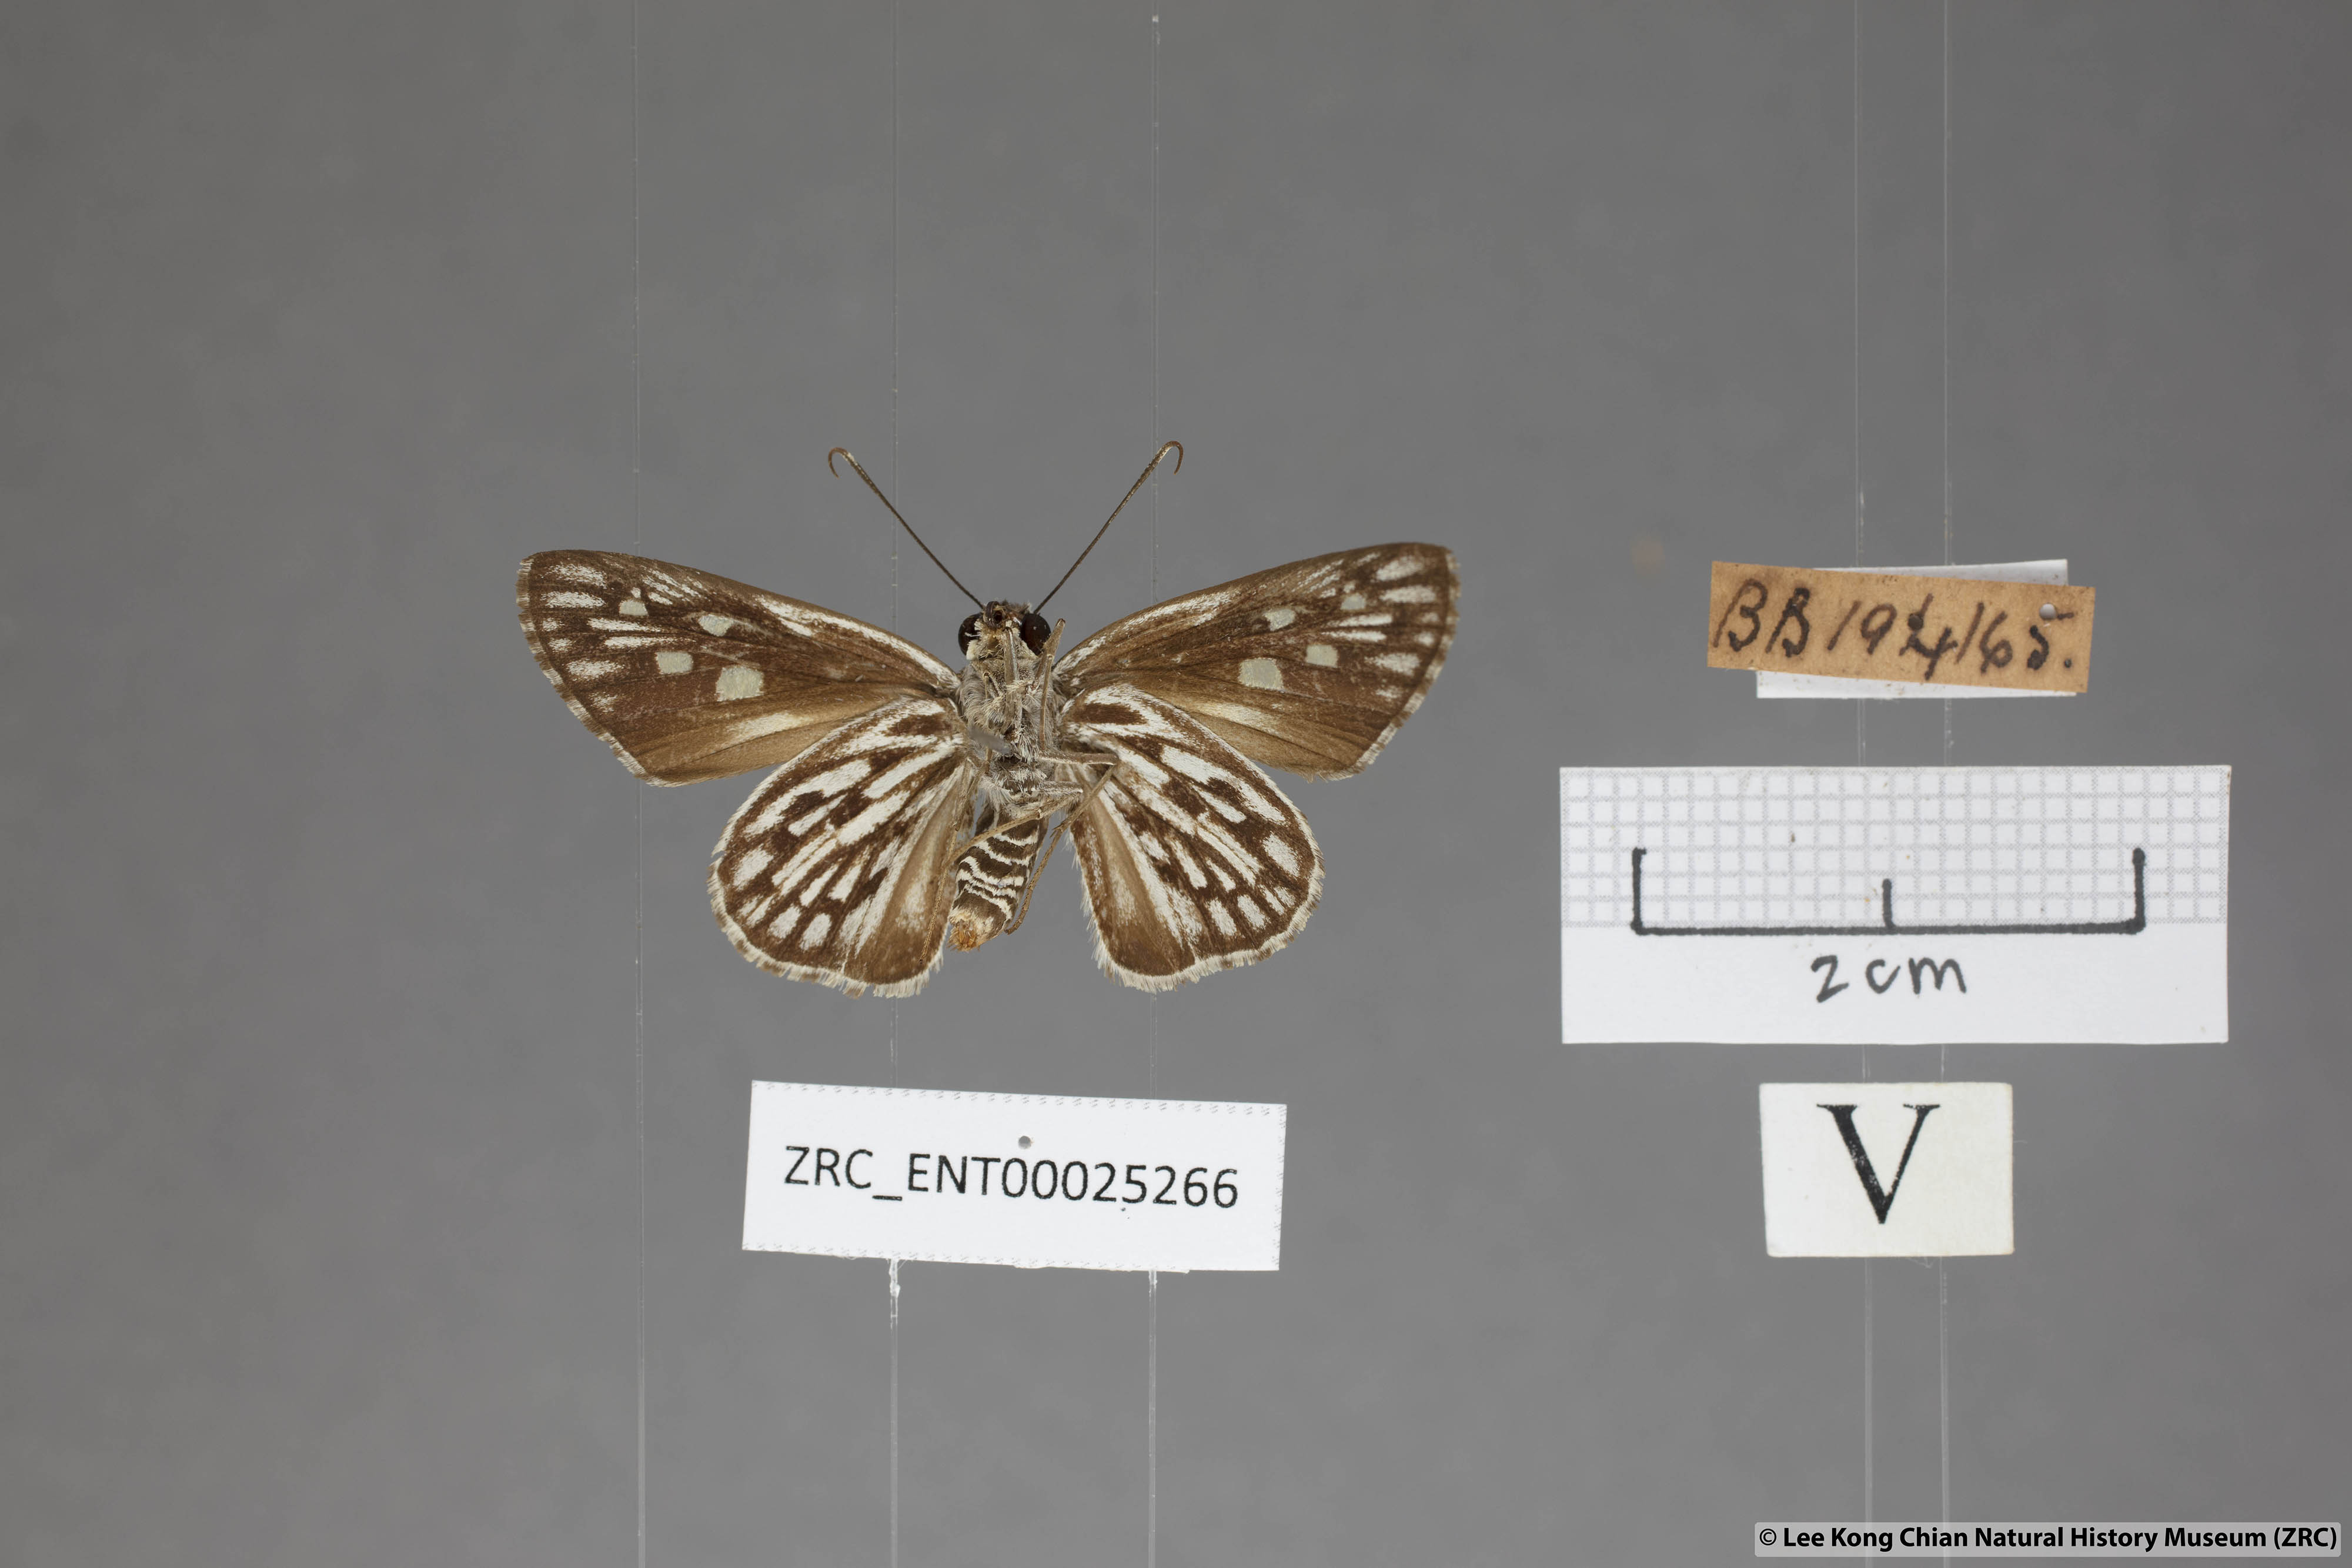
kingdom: Animalia
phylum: Arthropoda
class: Insecta
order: Lepidoptera
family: Hesperiidae
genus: Plastingia
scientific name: Plastingia naga
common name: Chequered lancer
